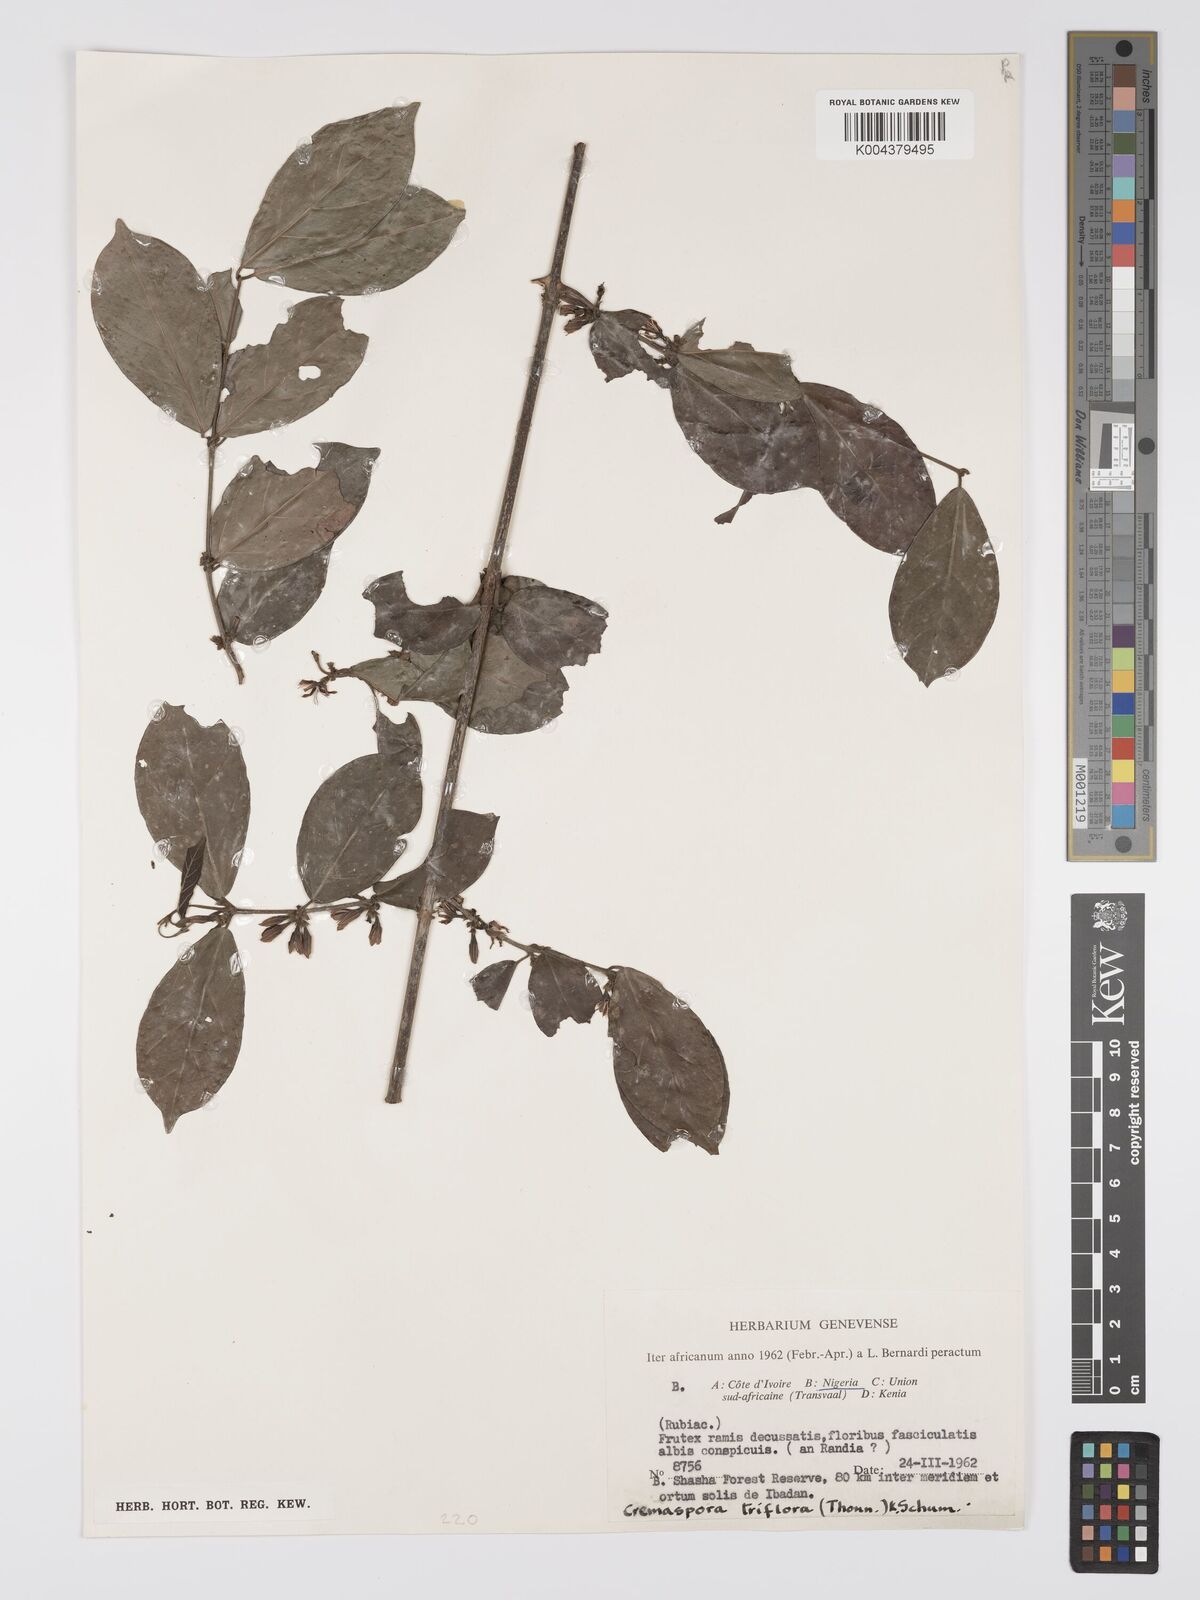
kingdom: Plantae
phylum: Tracheophyta
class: Magnoliopsida
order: Gentianales
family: Rubiaceae
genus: Cremaspora
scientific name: Cremaspora triflora
